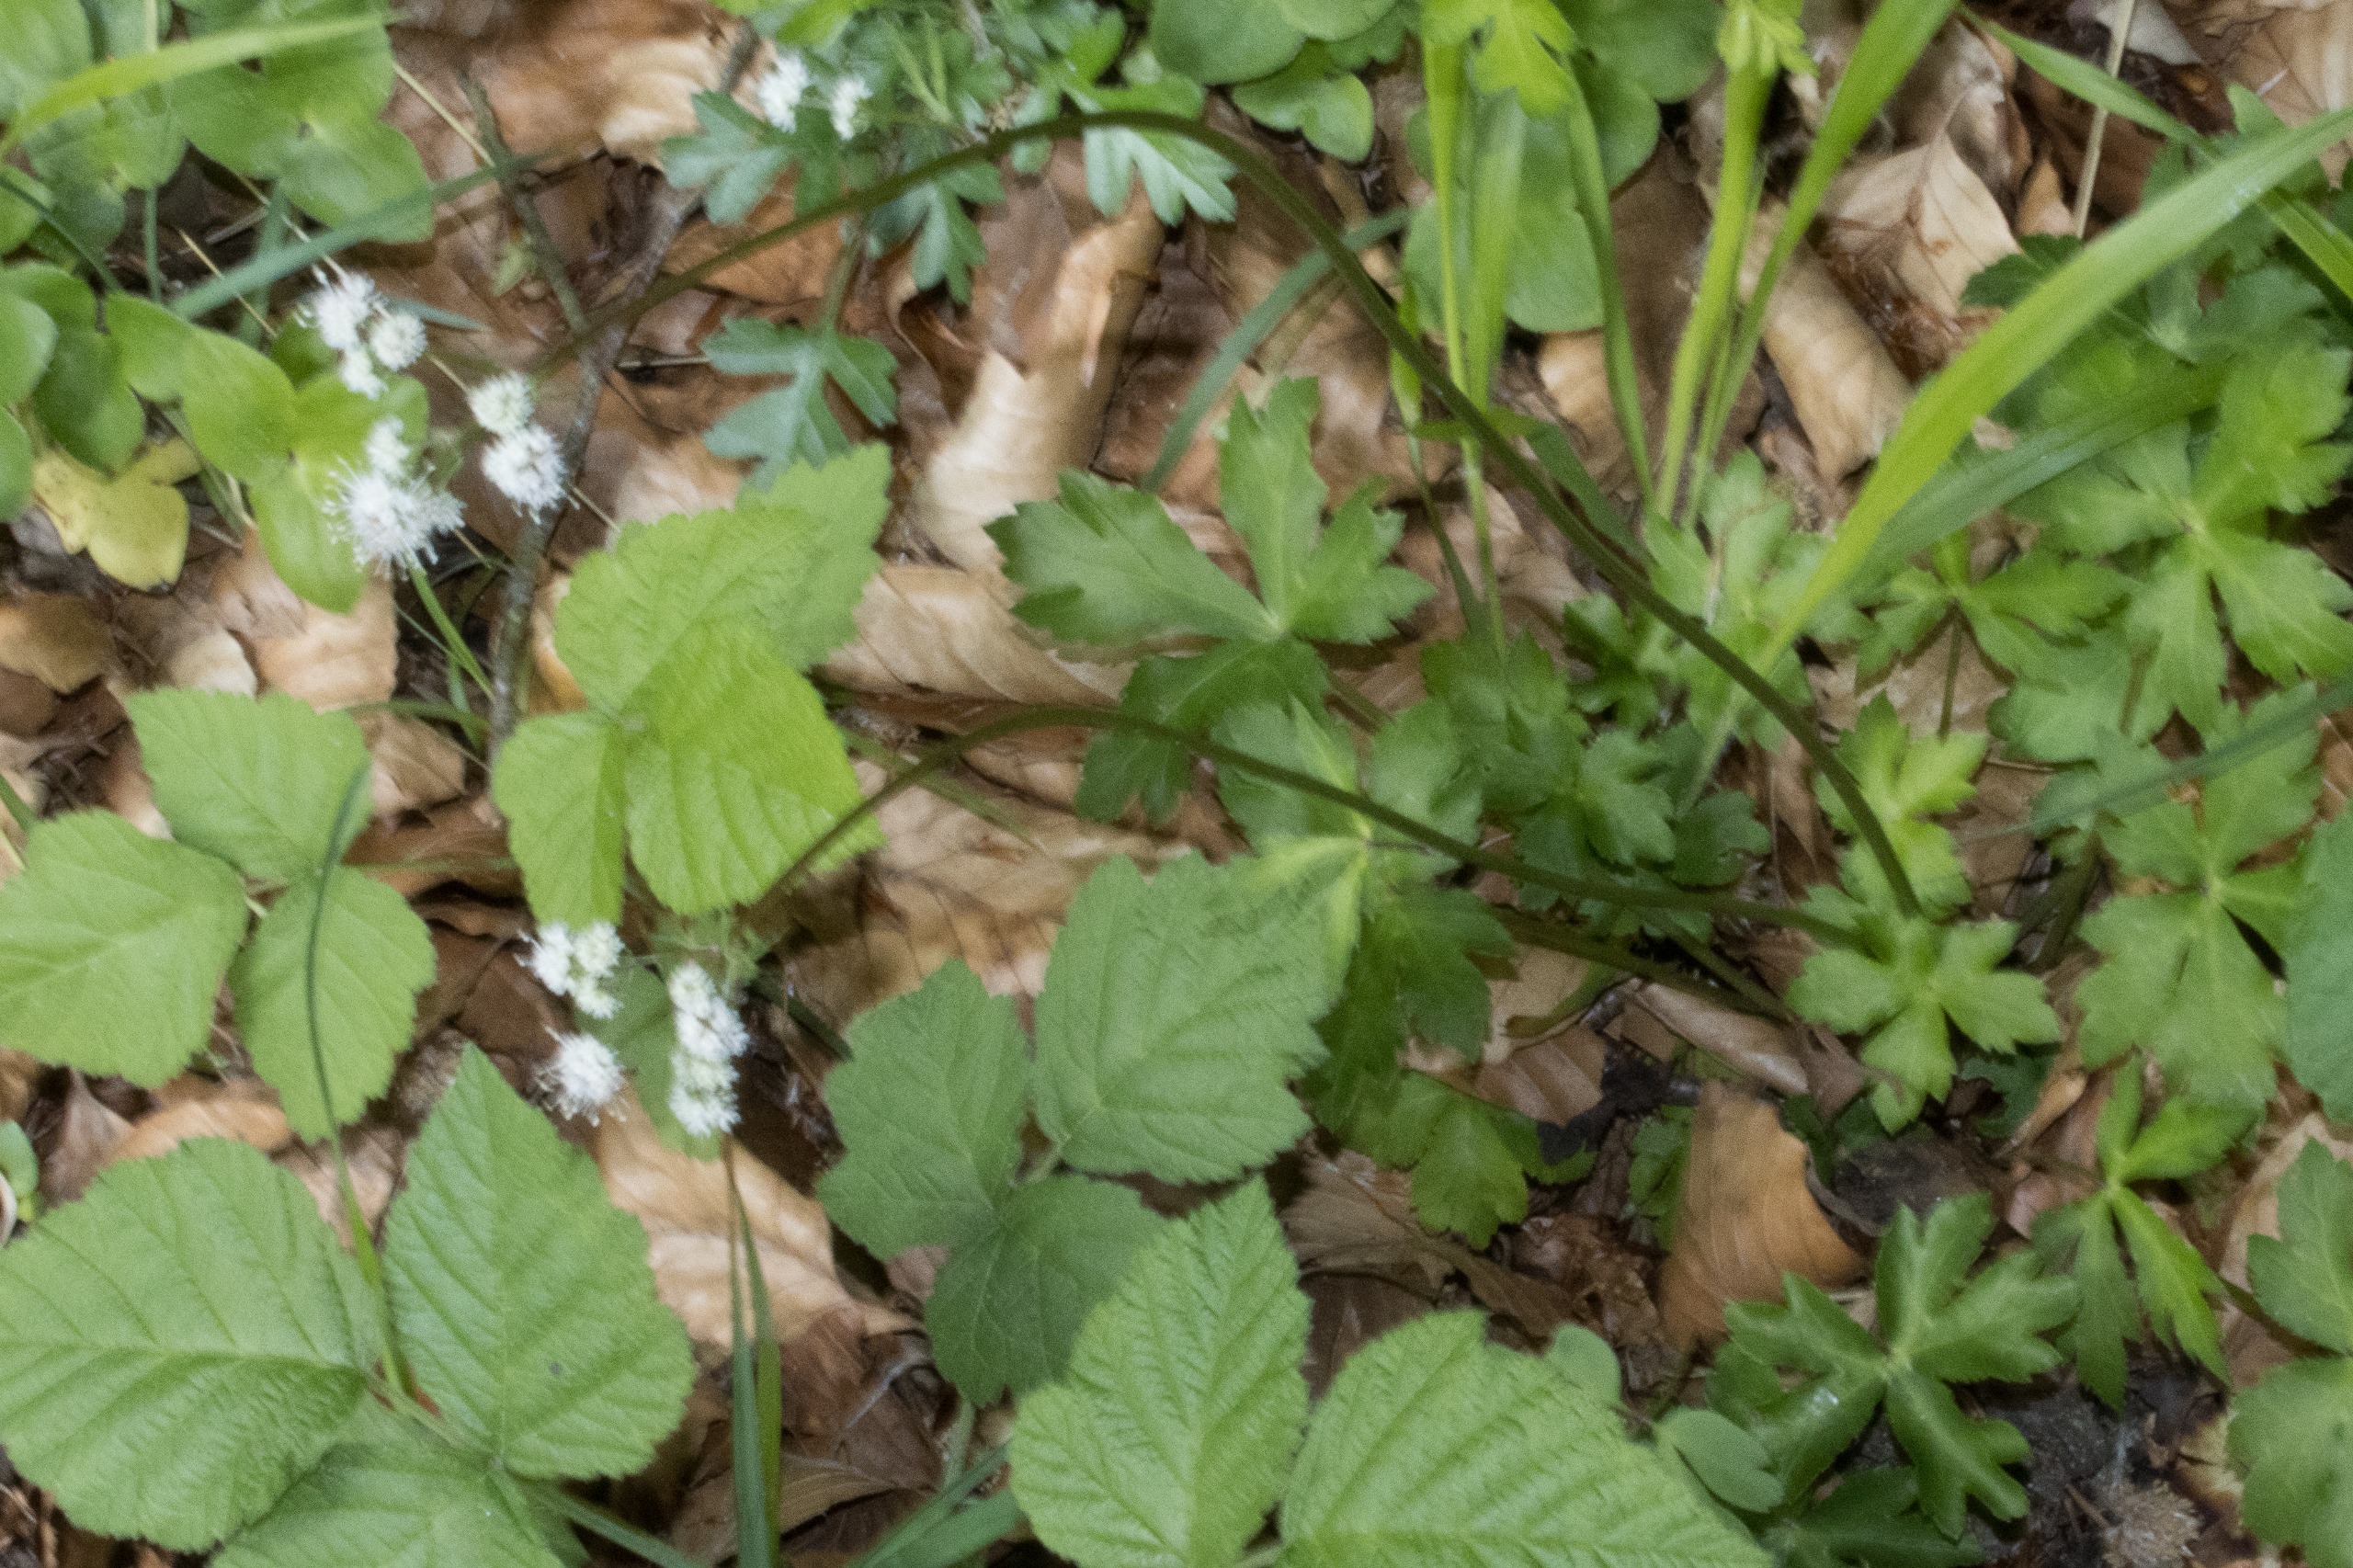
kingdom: Plantae
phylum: Tracheophyta
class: Magnoliopsida
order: Apiales
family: Apiaceae
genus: Sanicula
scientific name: Sanicula europaea
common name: Sanikel
